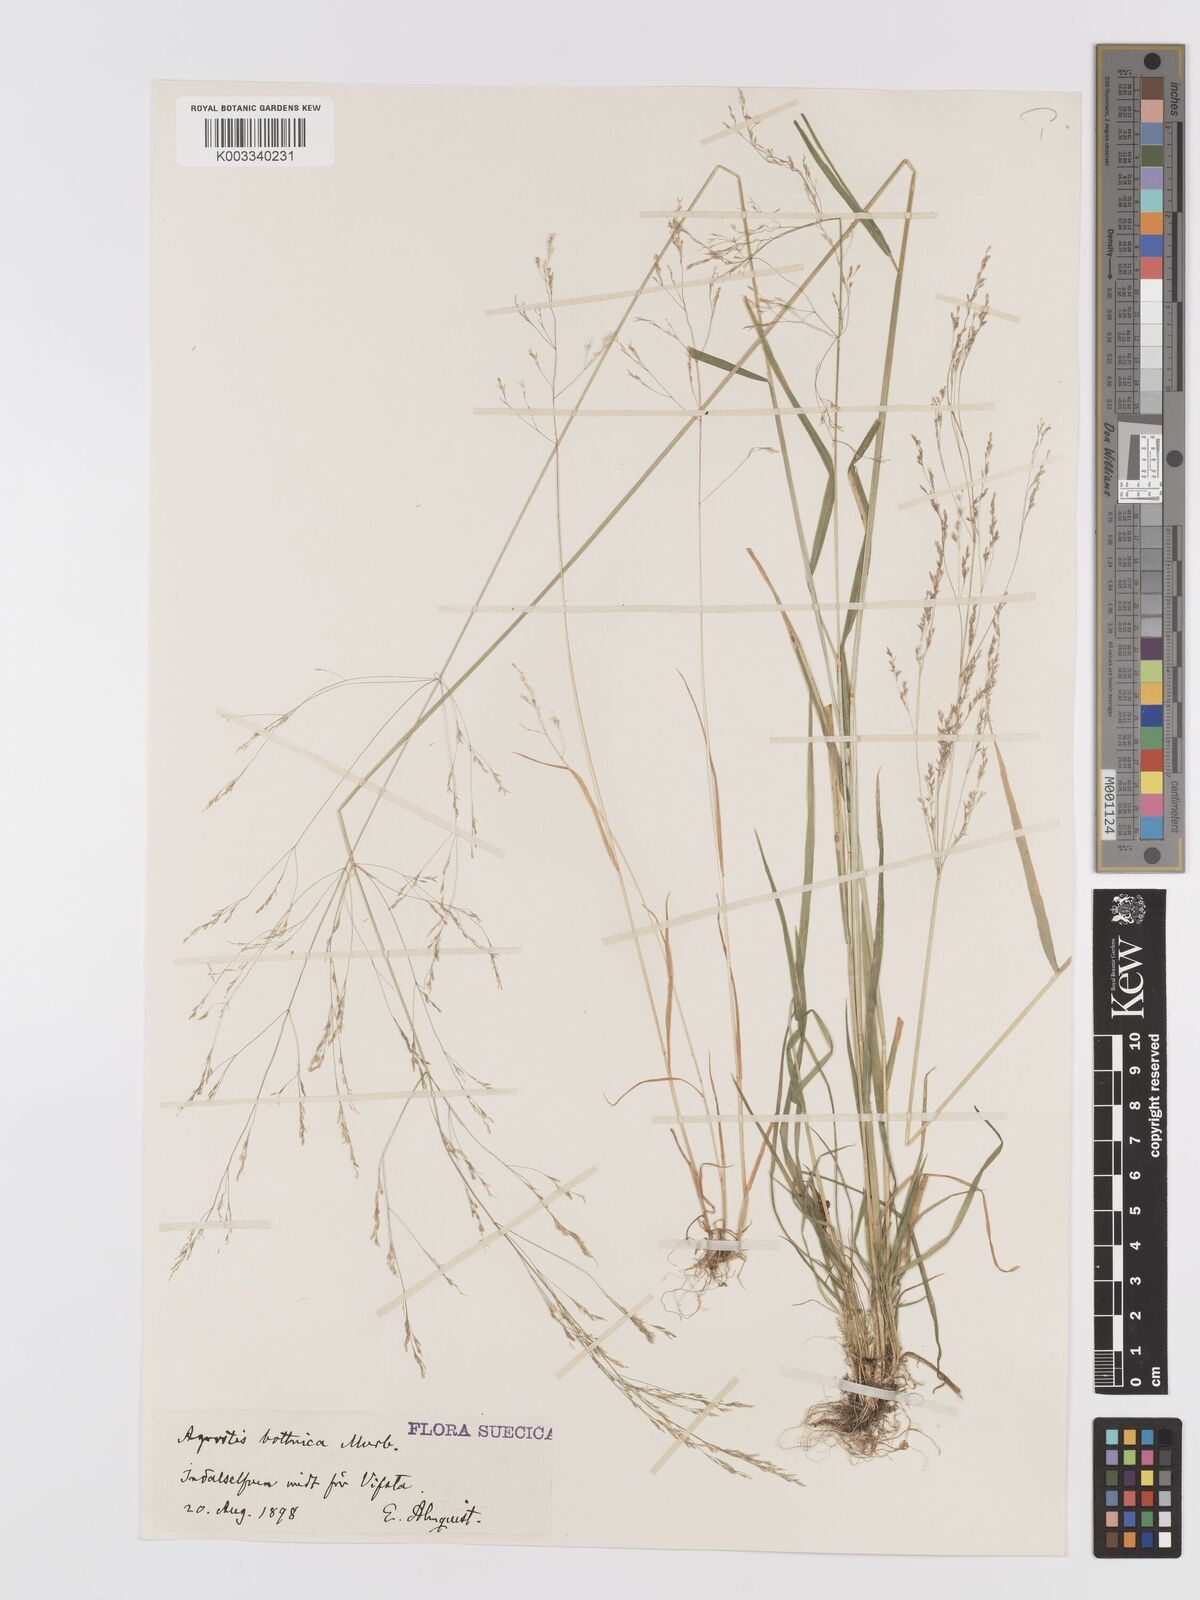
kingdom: Plantae
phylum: Tracheophyta
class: Liliopsida
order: Poales
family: Poaceae
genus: Agrostis
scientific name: Agrostis clavata
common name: Clavate bent
